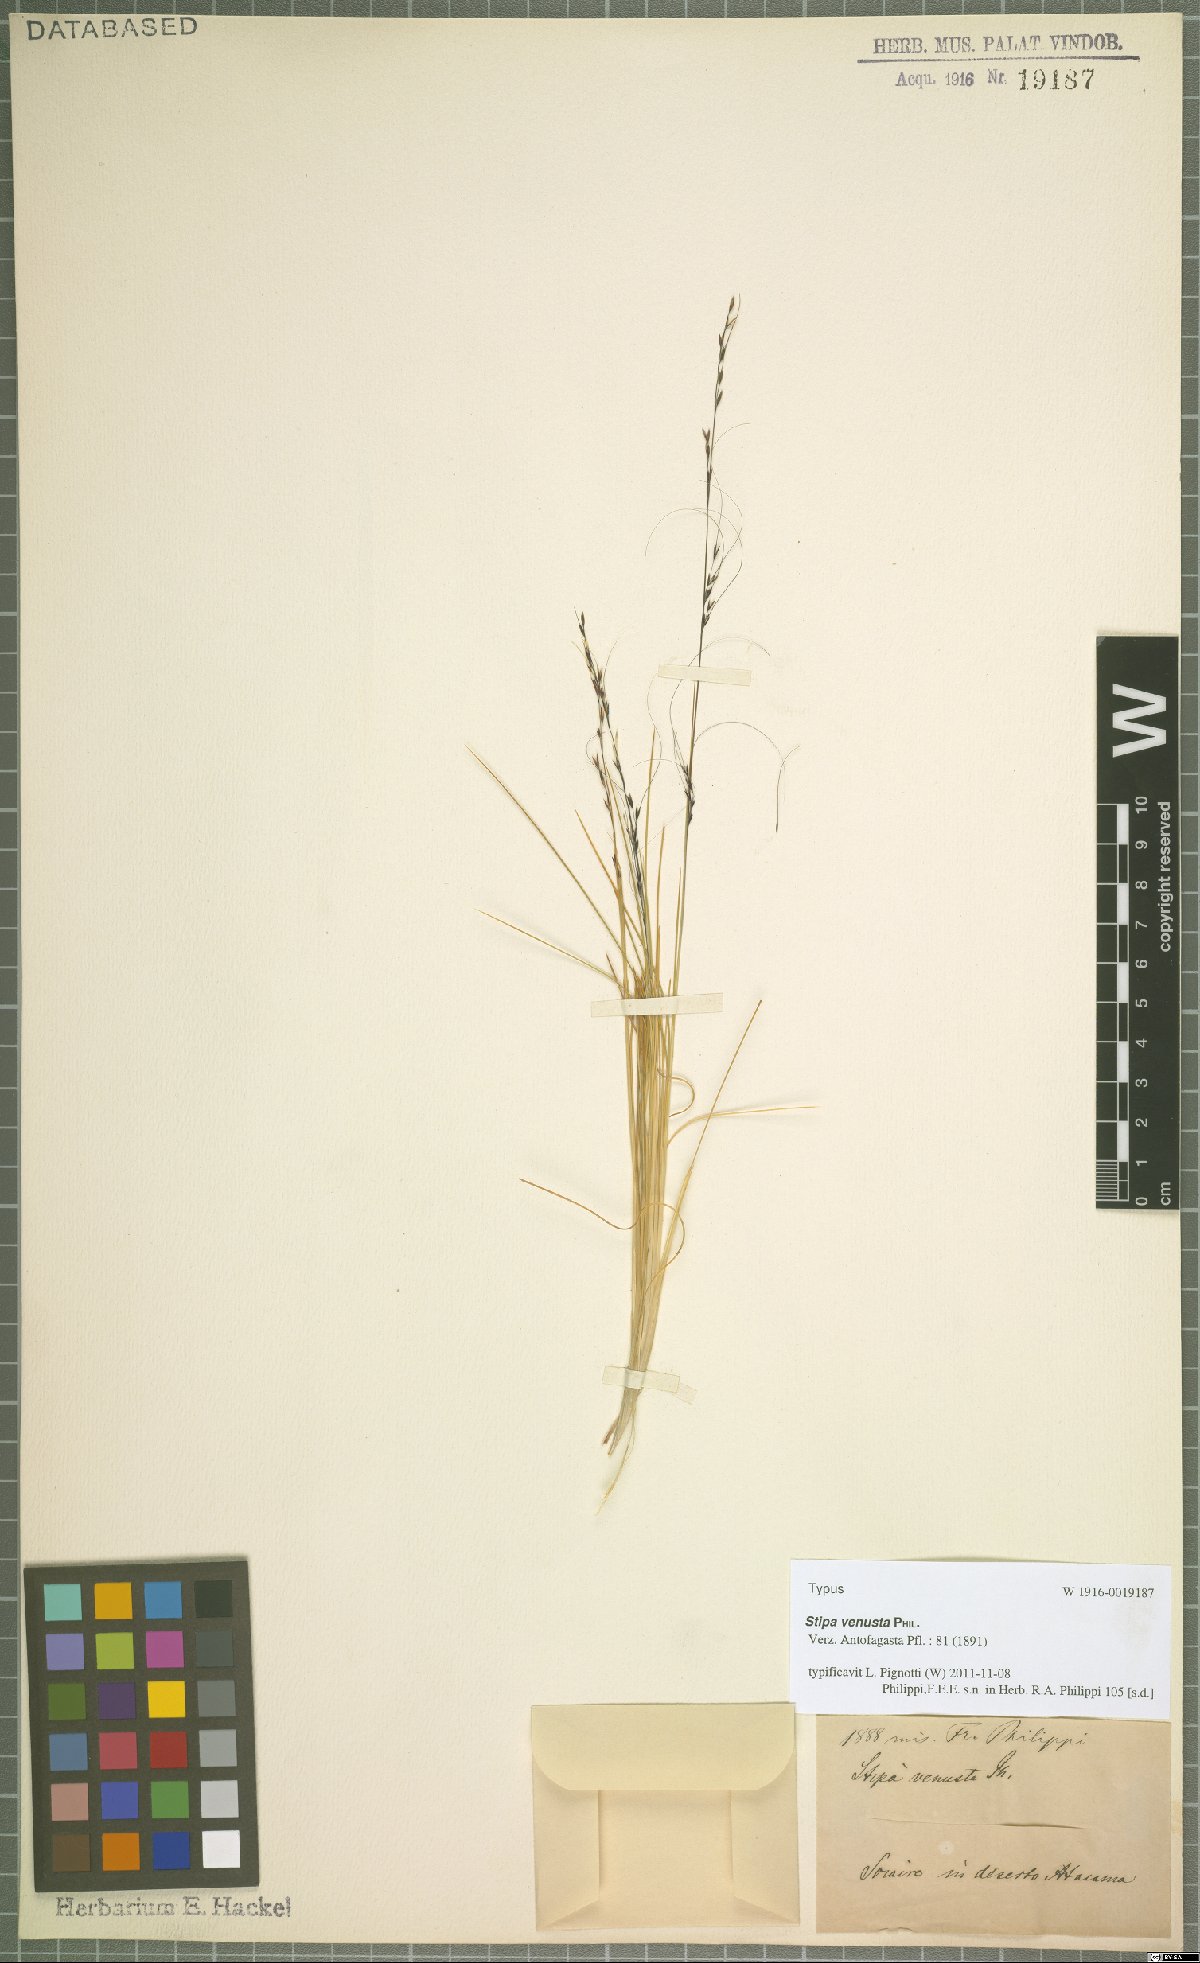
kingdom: Plantae
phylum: Tracheophyta
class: Liliopsida
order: Poales
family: Poaceae
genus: Stipa
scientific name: Stipa venusta
